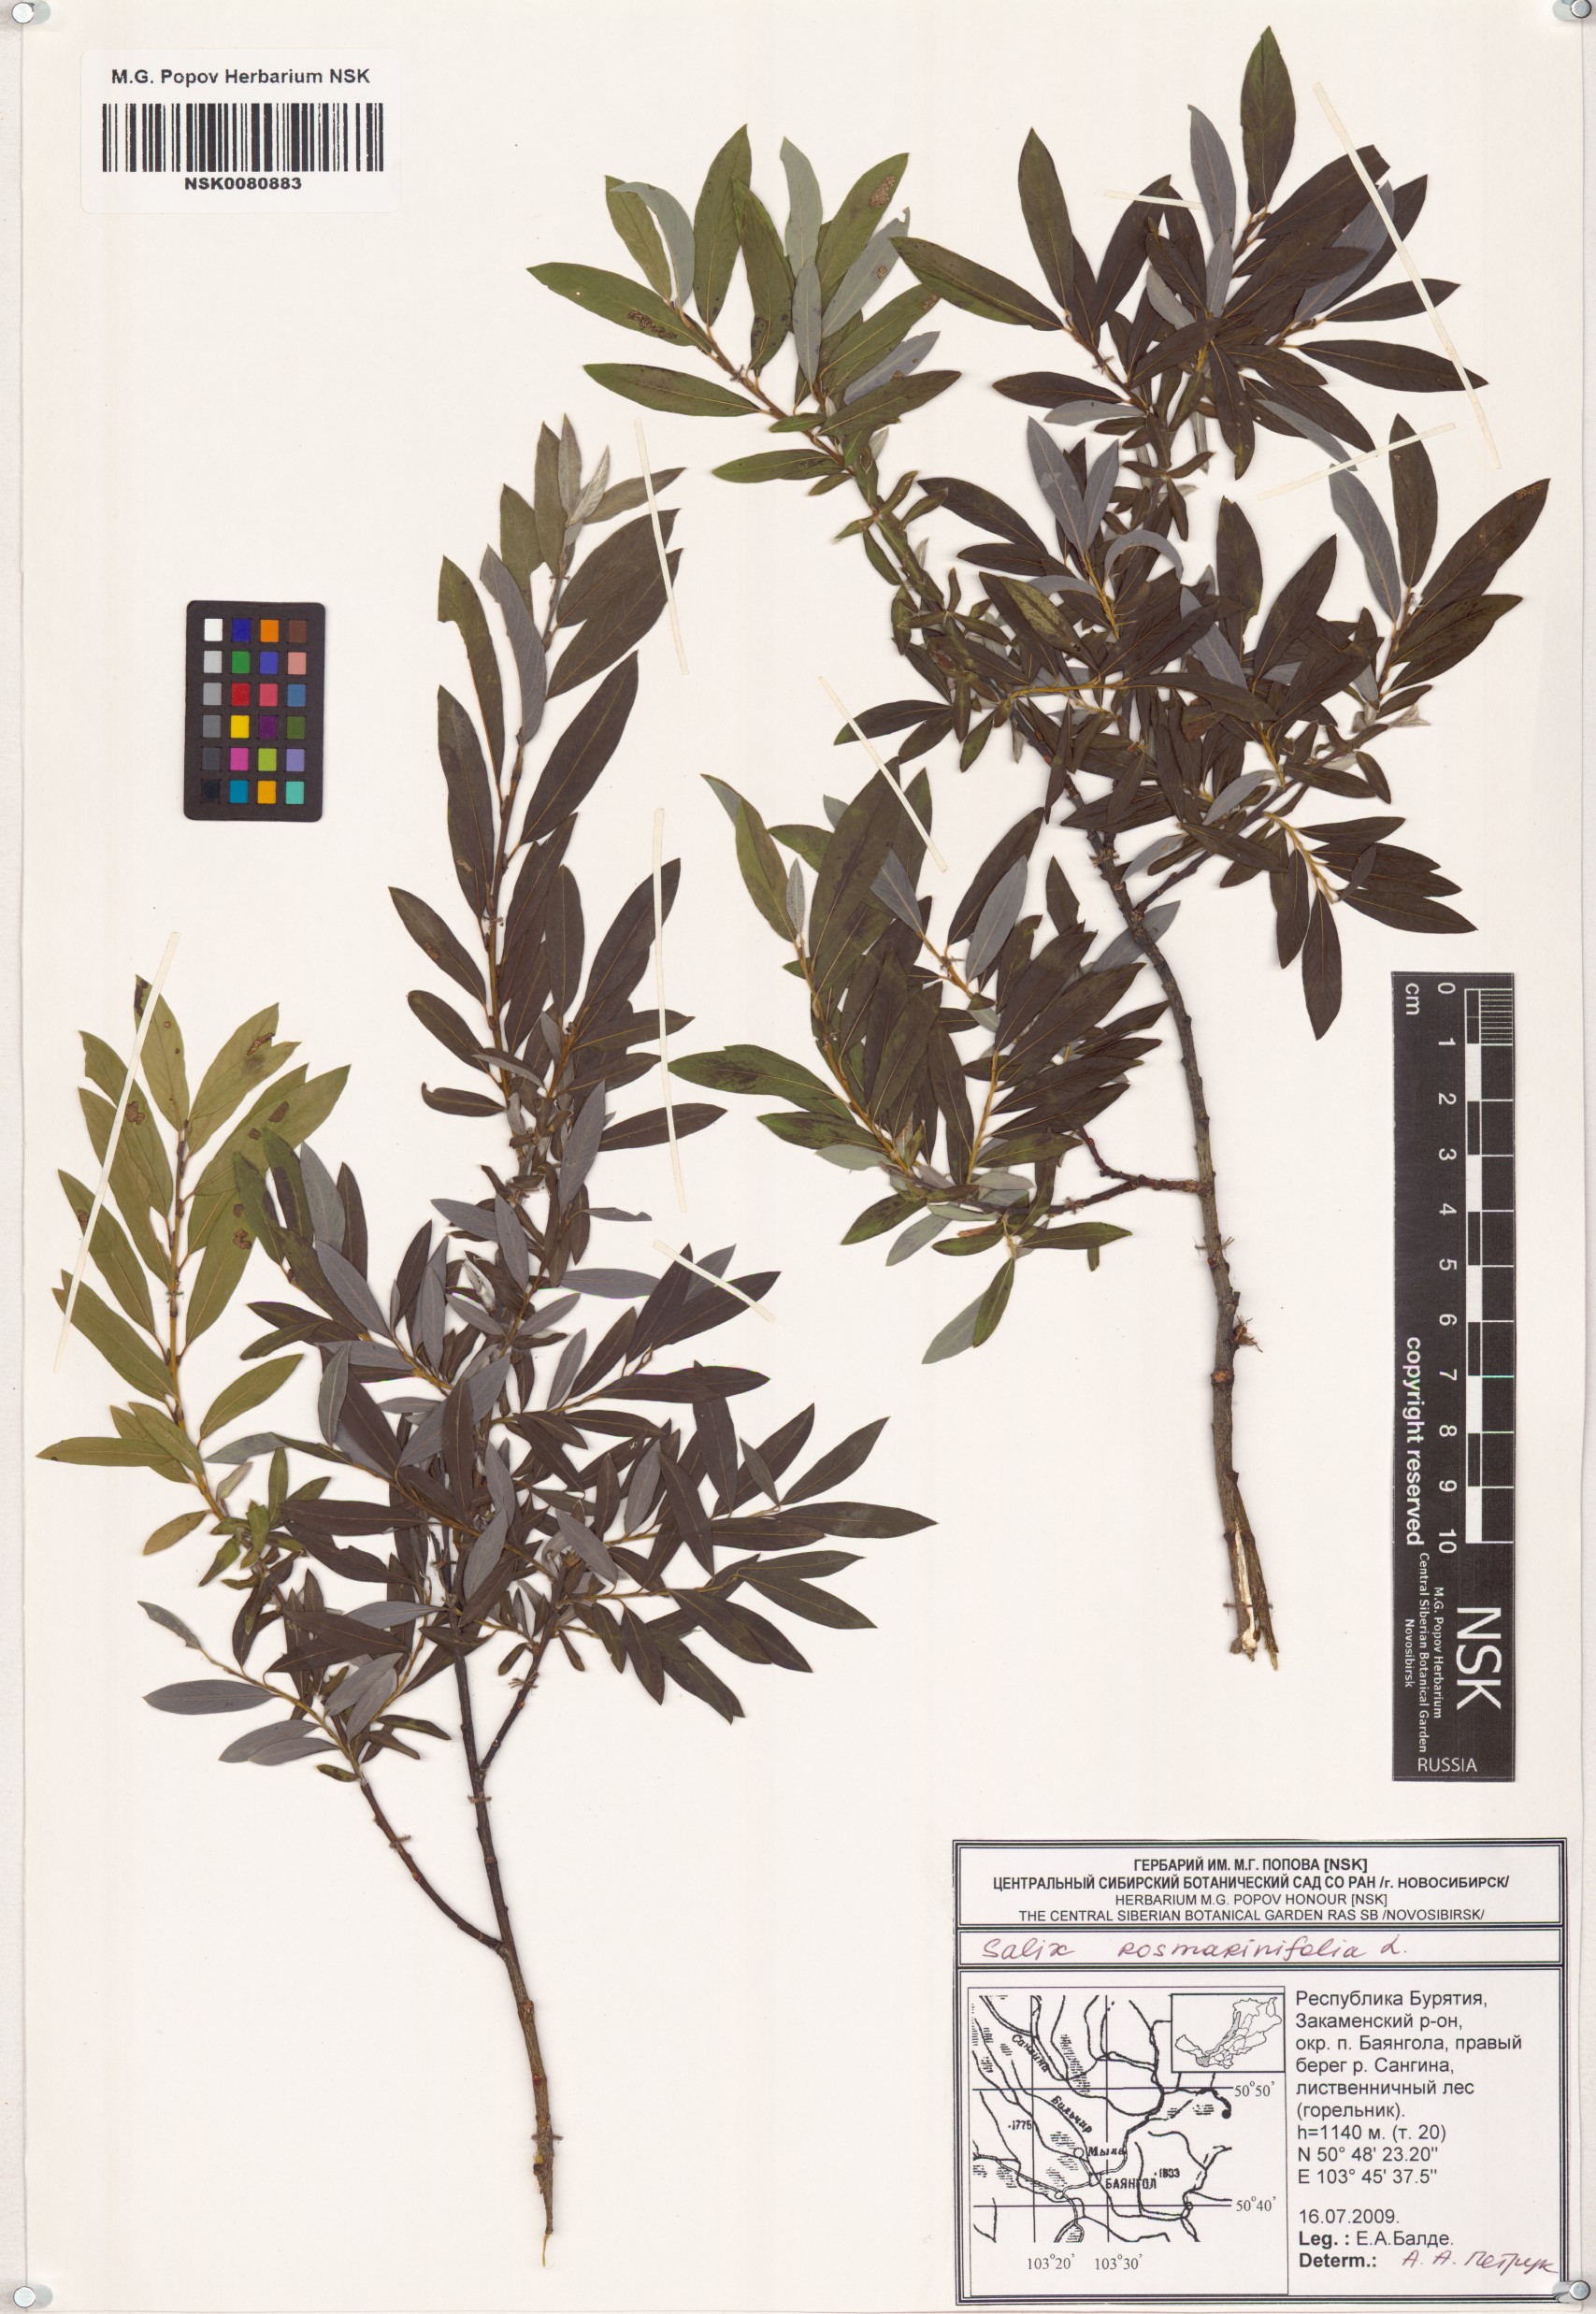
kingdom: Plantae
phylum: Tracheophyta
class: Magnoliopsida
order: Malpighiales
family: Salicaceae
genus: Salix
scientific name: Salix rosmarinifolia
